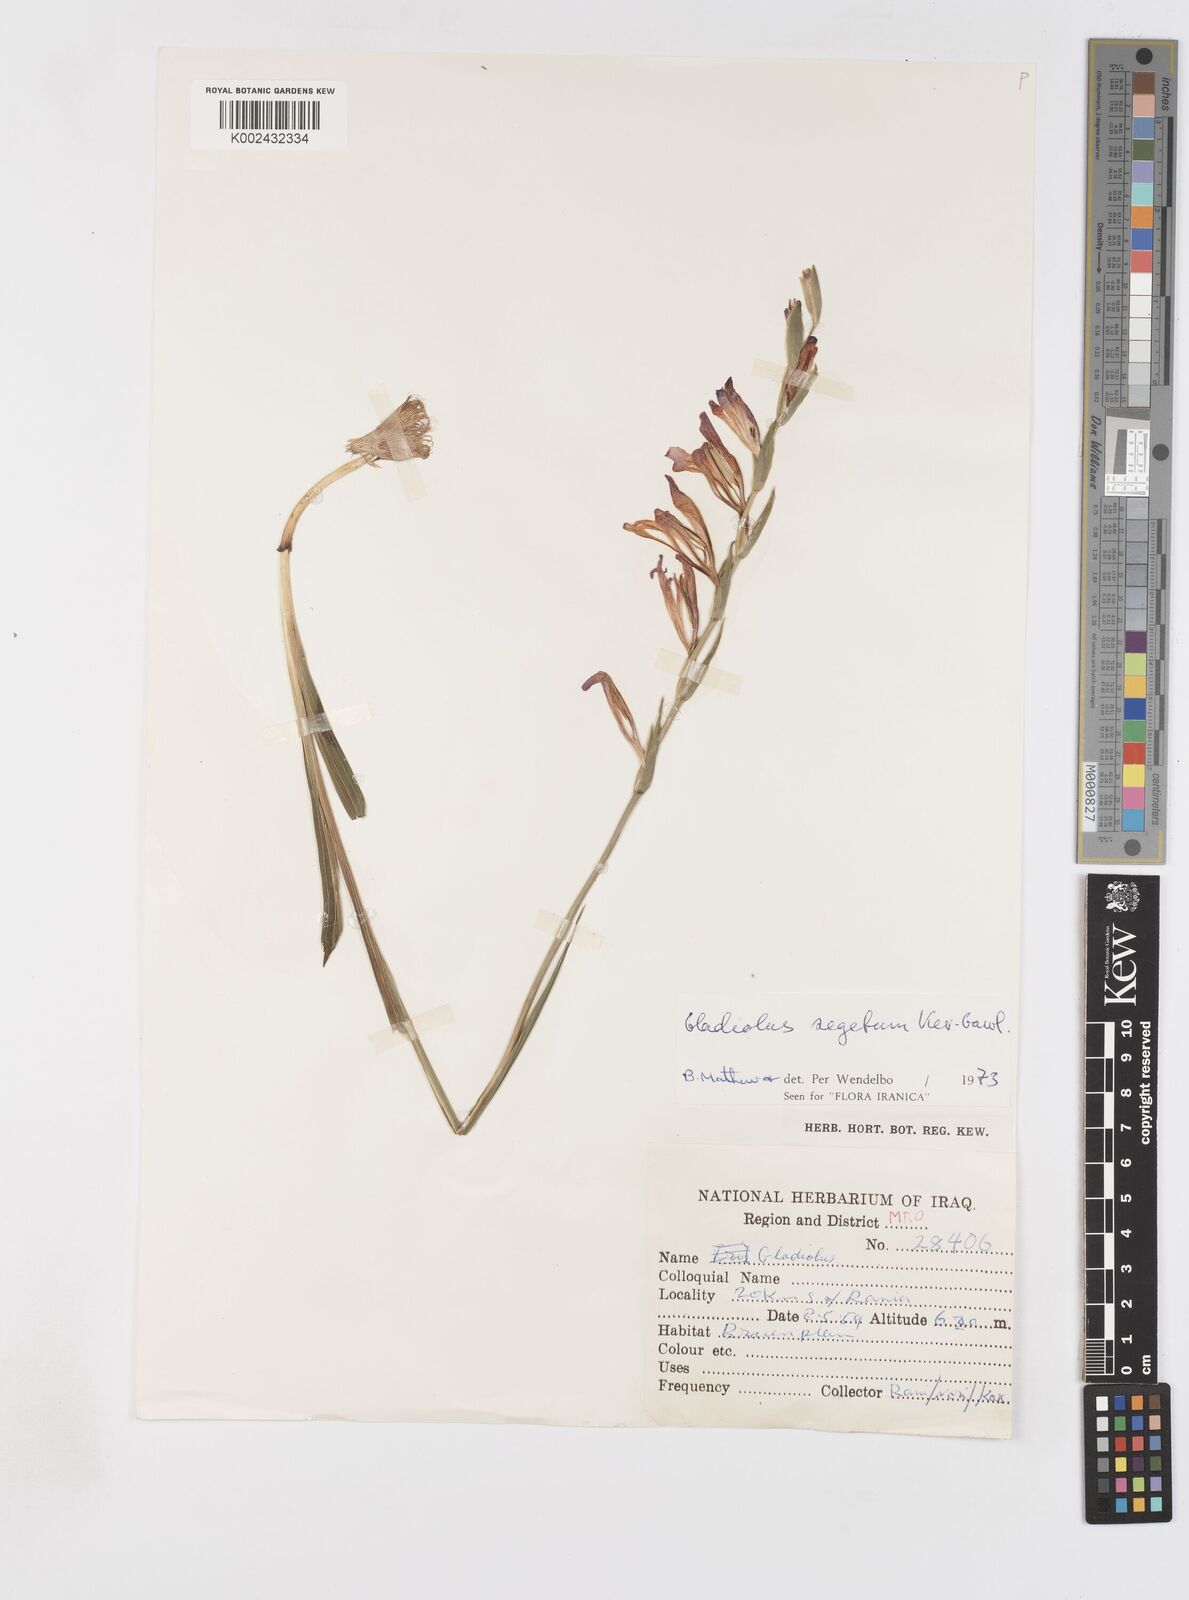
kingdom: Plantae
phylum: Tracheophyta
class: Liliopsida
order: Asparagales
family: Iridaceae
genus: Gladiolus
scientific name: Gladiolus italicus
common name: Field gladiolus
